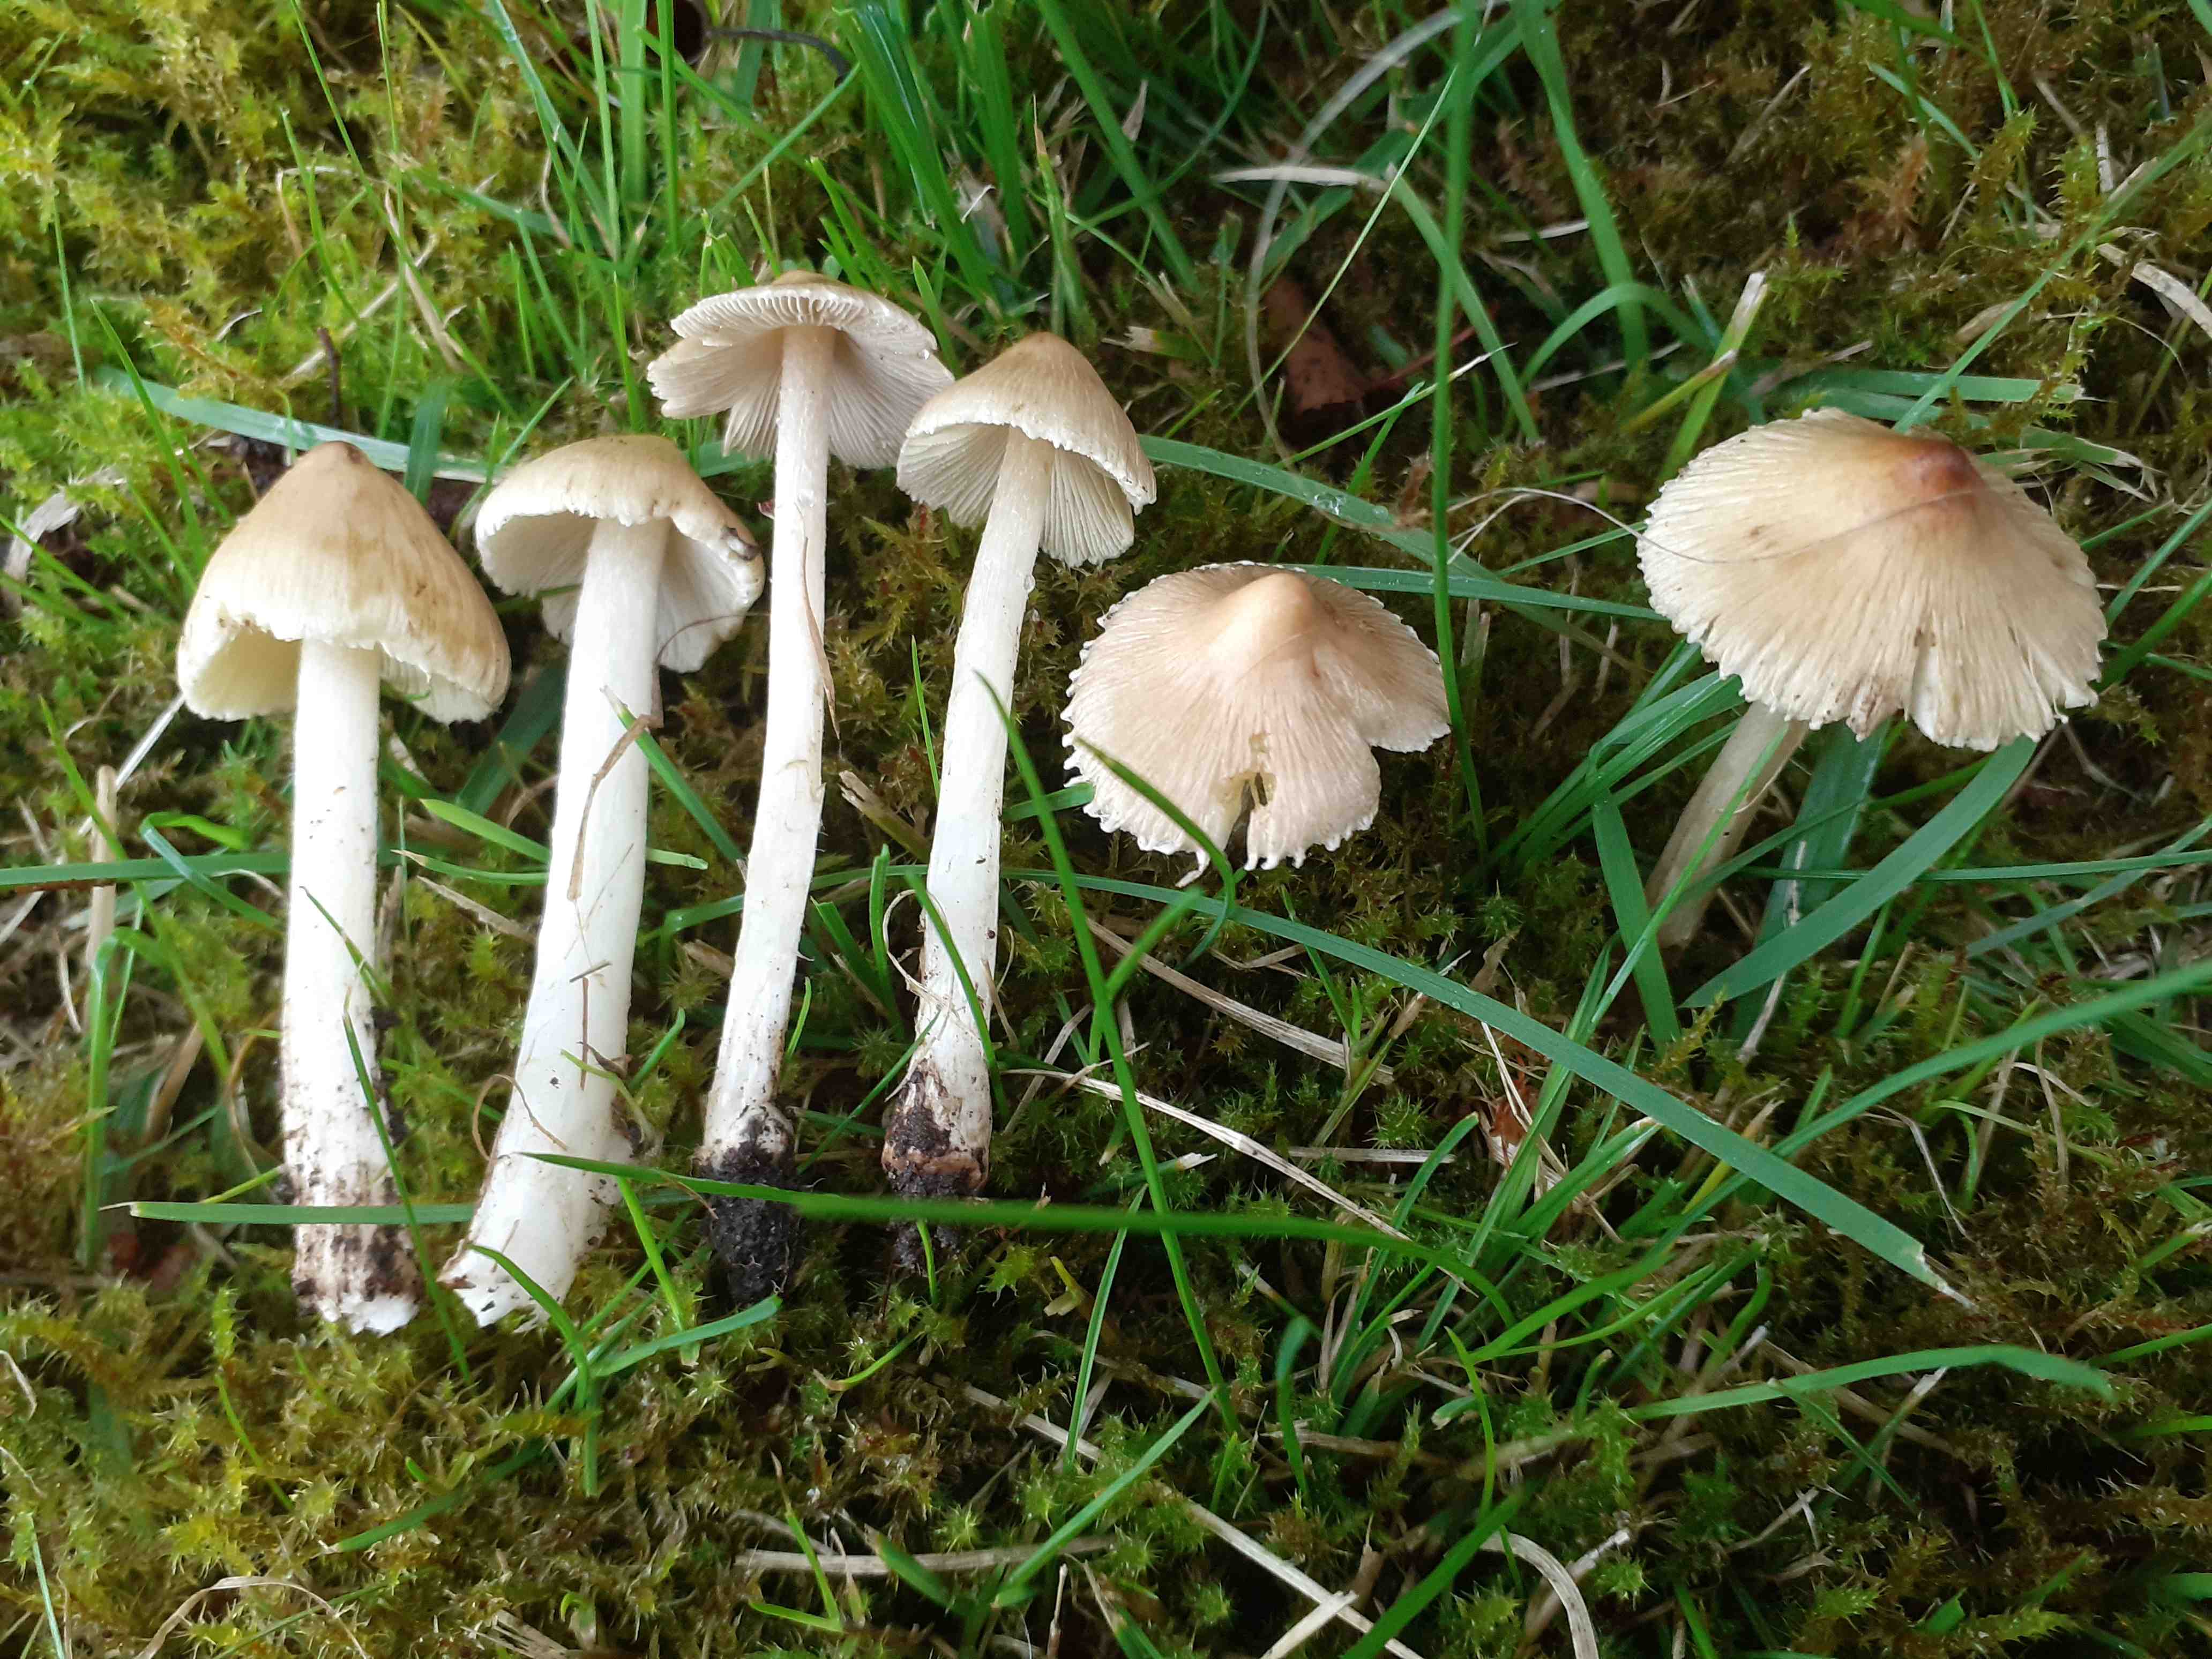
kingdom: Fungi
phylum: Basidiomycota
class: Agaricomycetes
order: Agaricales
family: Inocybaceae
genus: Pseudosperma
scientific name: Pseudosperma rimosum
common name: gulbladet trævlhat
